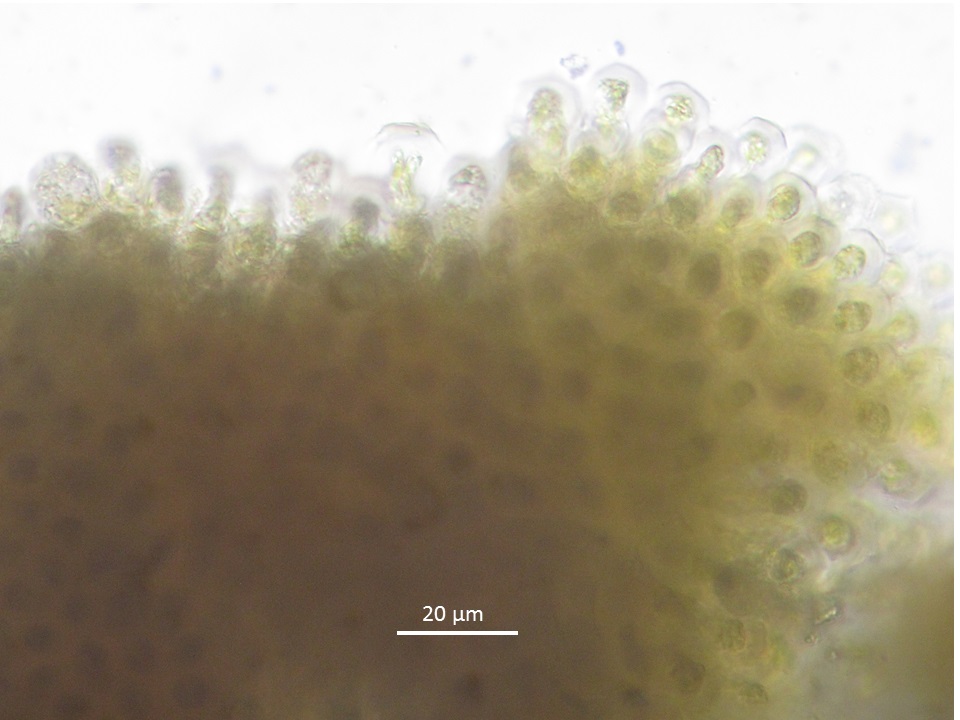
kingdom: Chromista
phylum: Ochrophyta
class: Phaeophyceae
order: Ectocarpales
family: Lithodermataceae
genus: Pseudolithoderma
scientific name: Pseudolithoderma roscoffense
